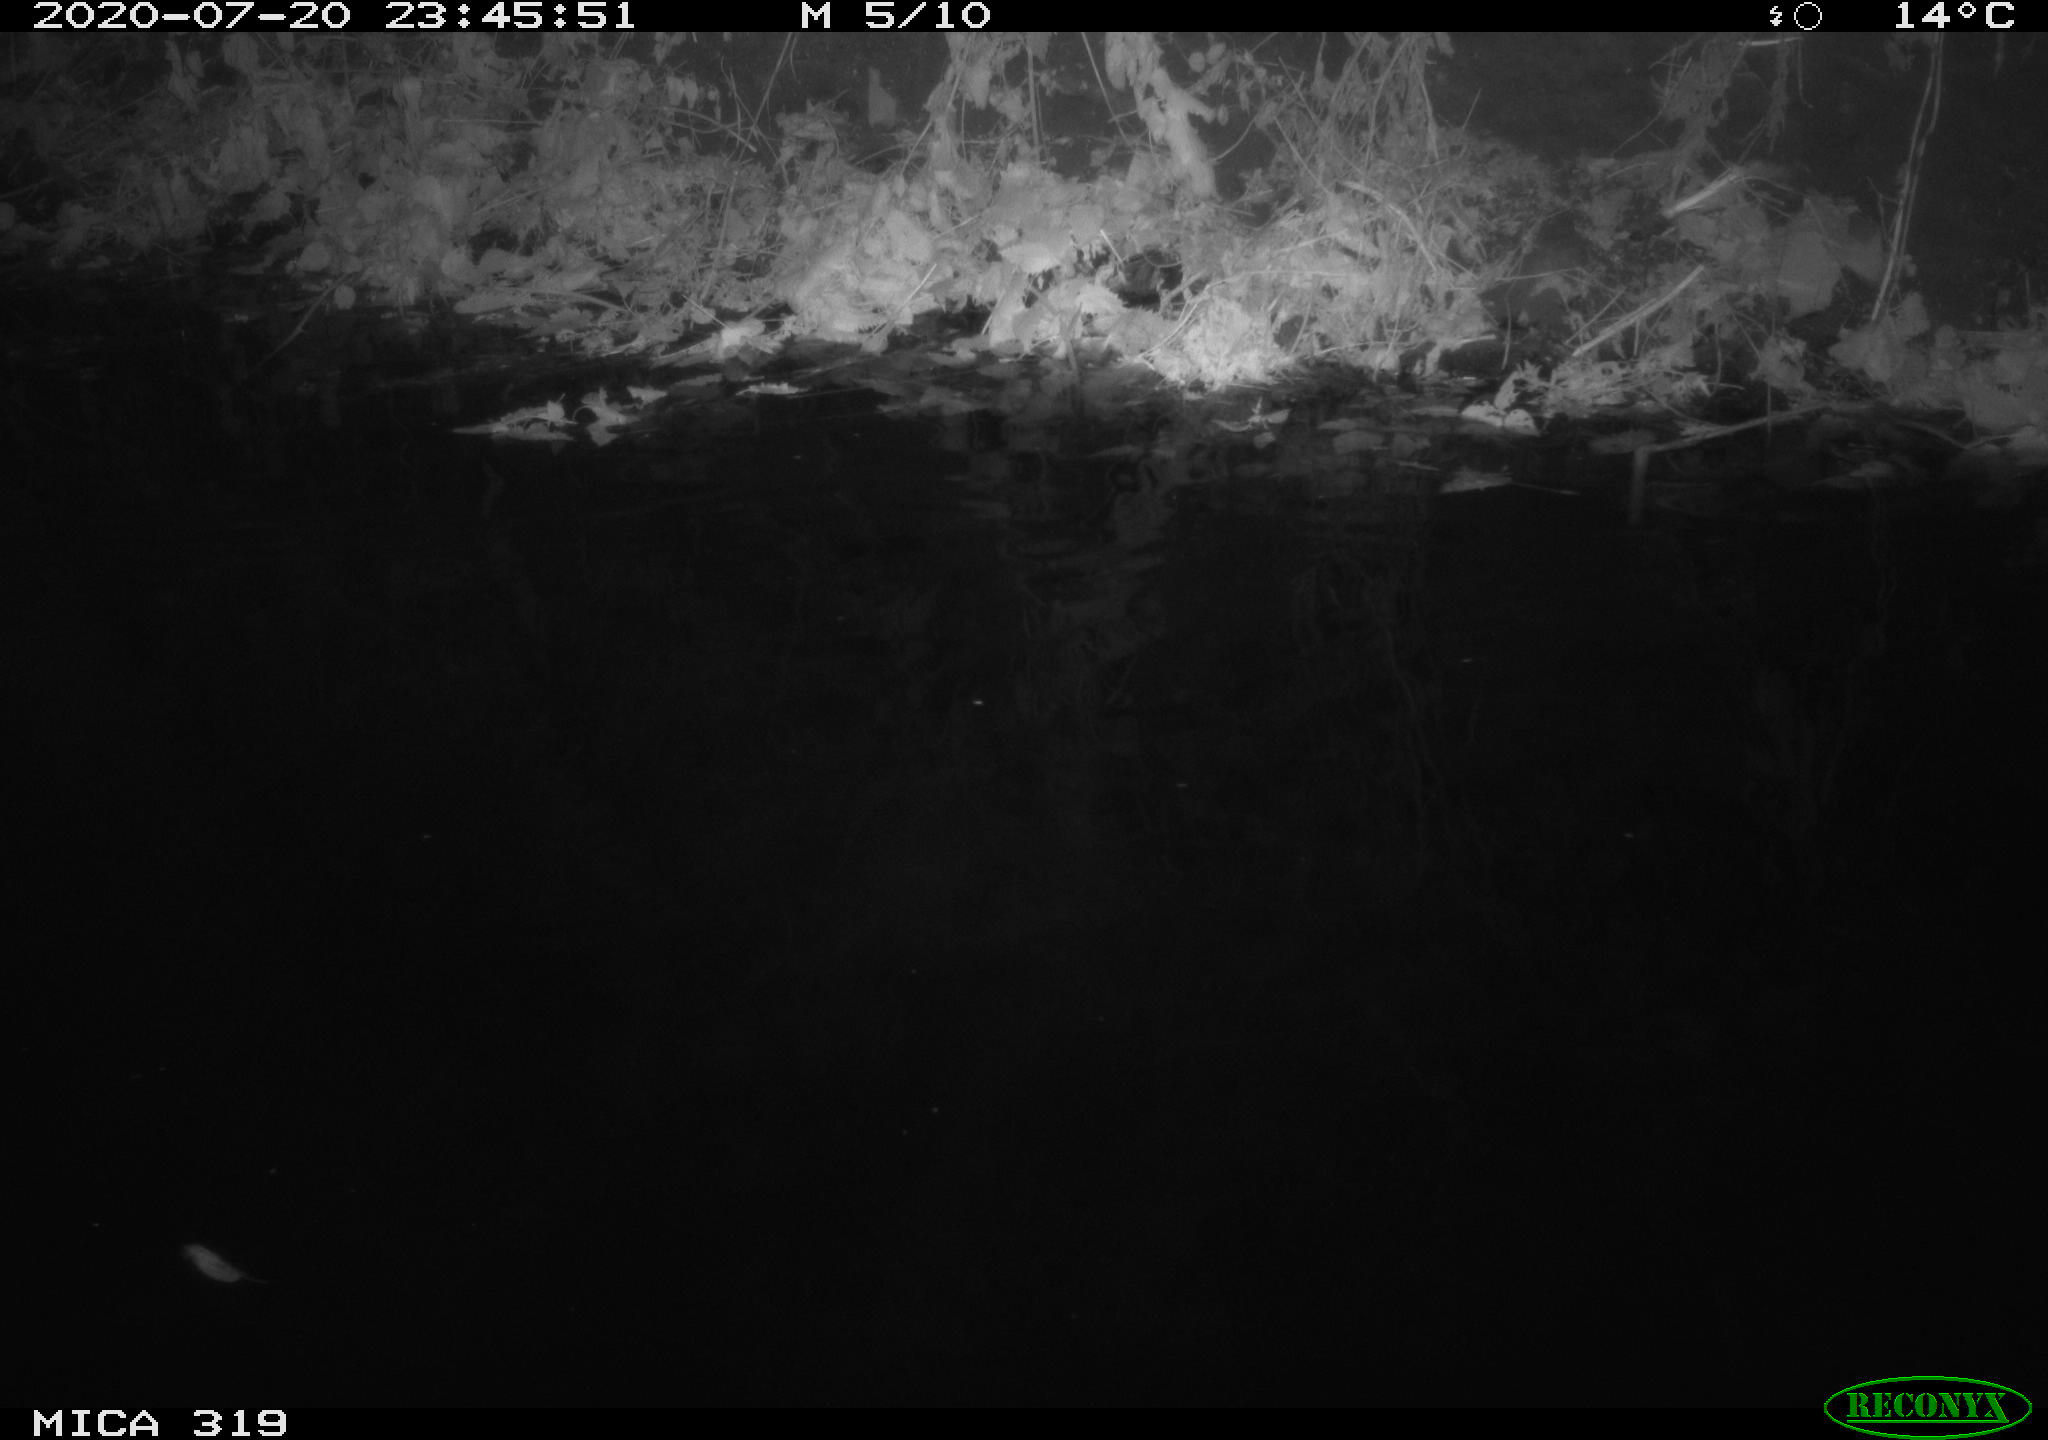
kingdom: Animalia
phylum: Chordata
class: Aves
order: Anseriformes
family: Anatidae
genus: Anas
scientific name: Anas platyrhynchos
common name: Mallard
